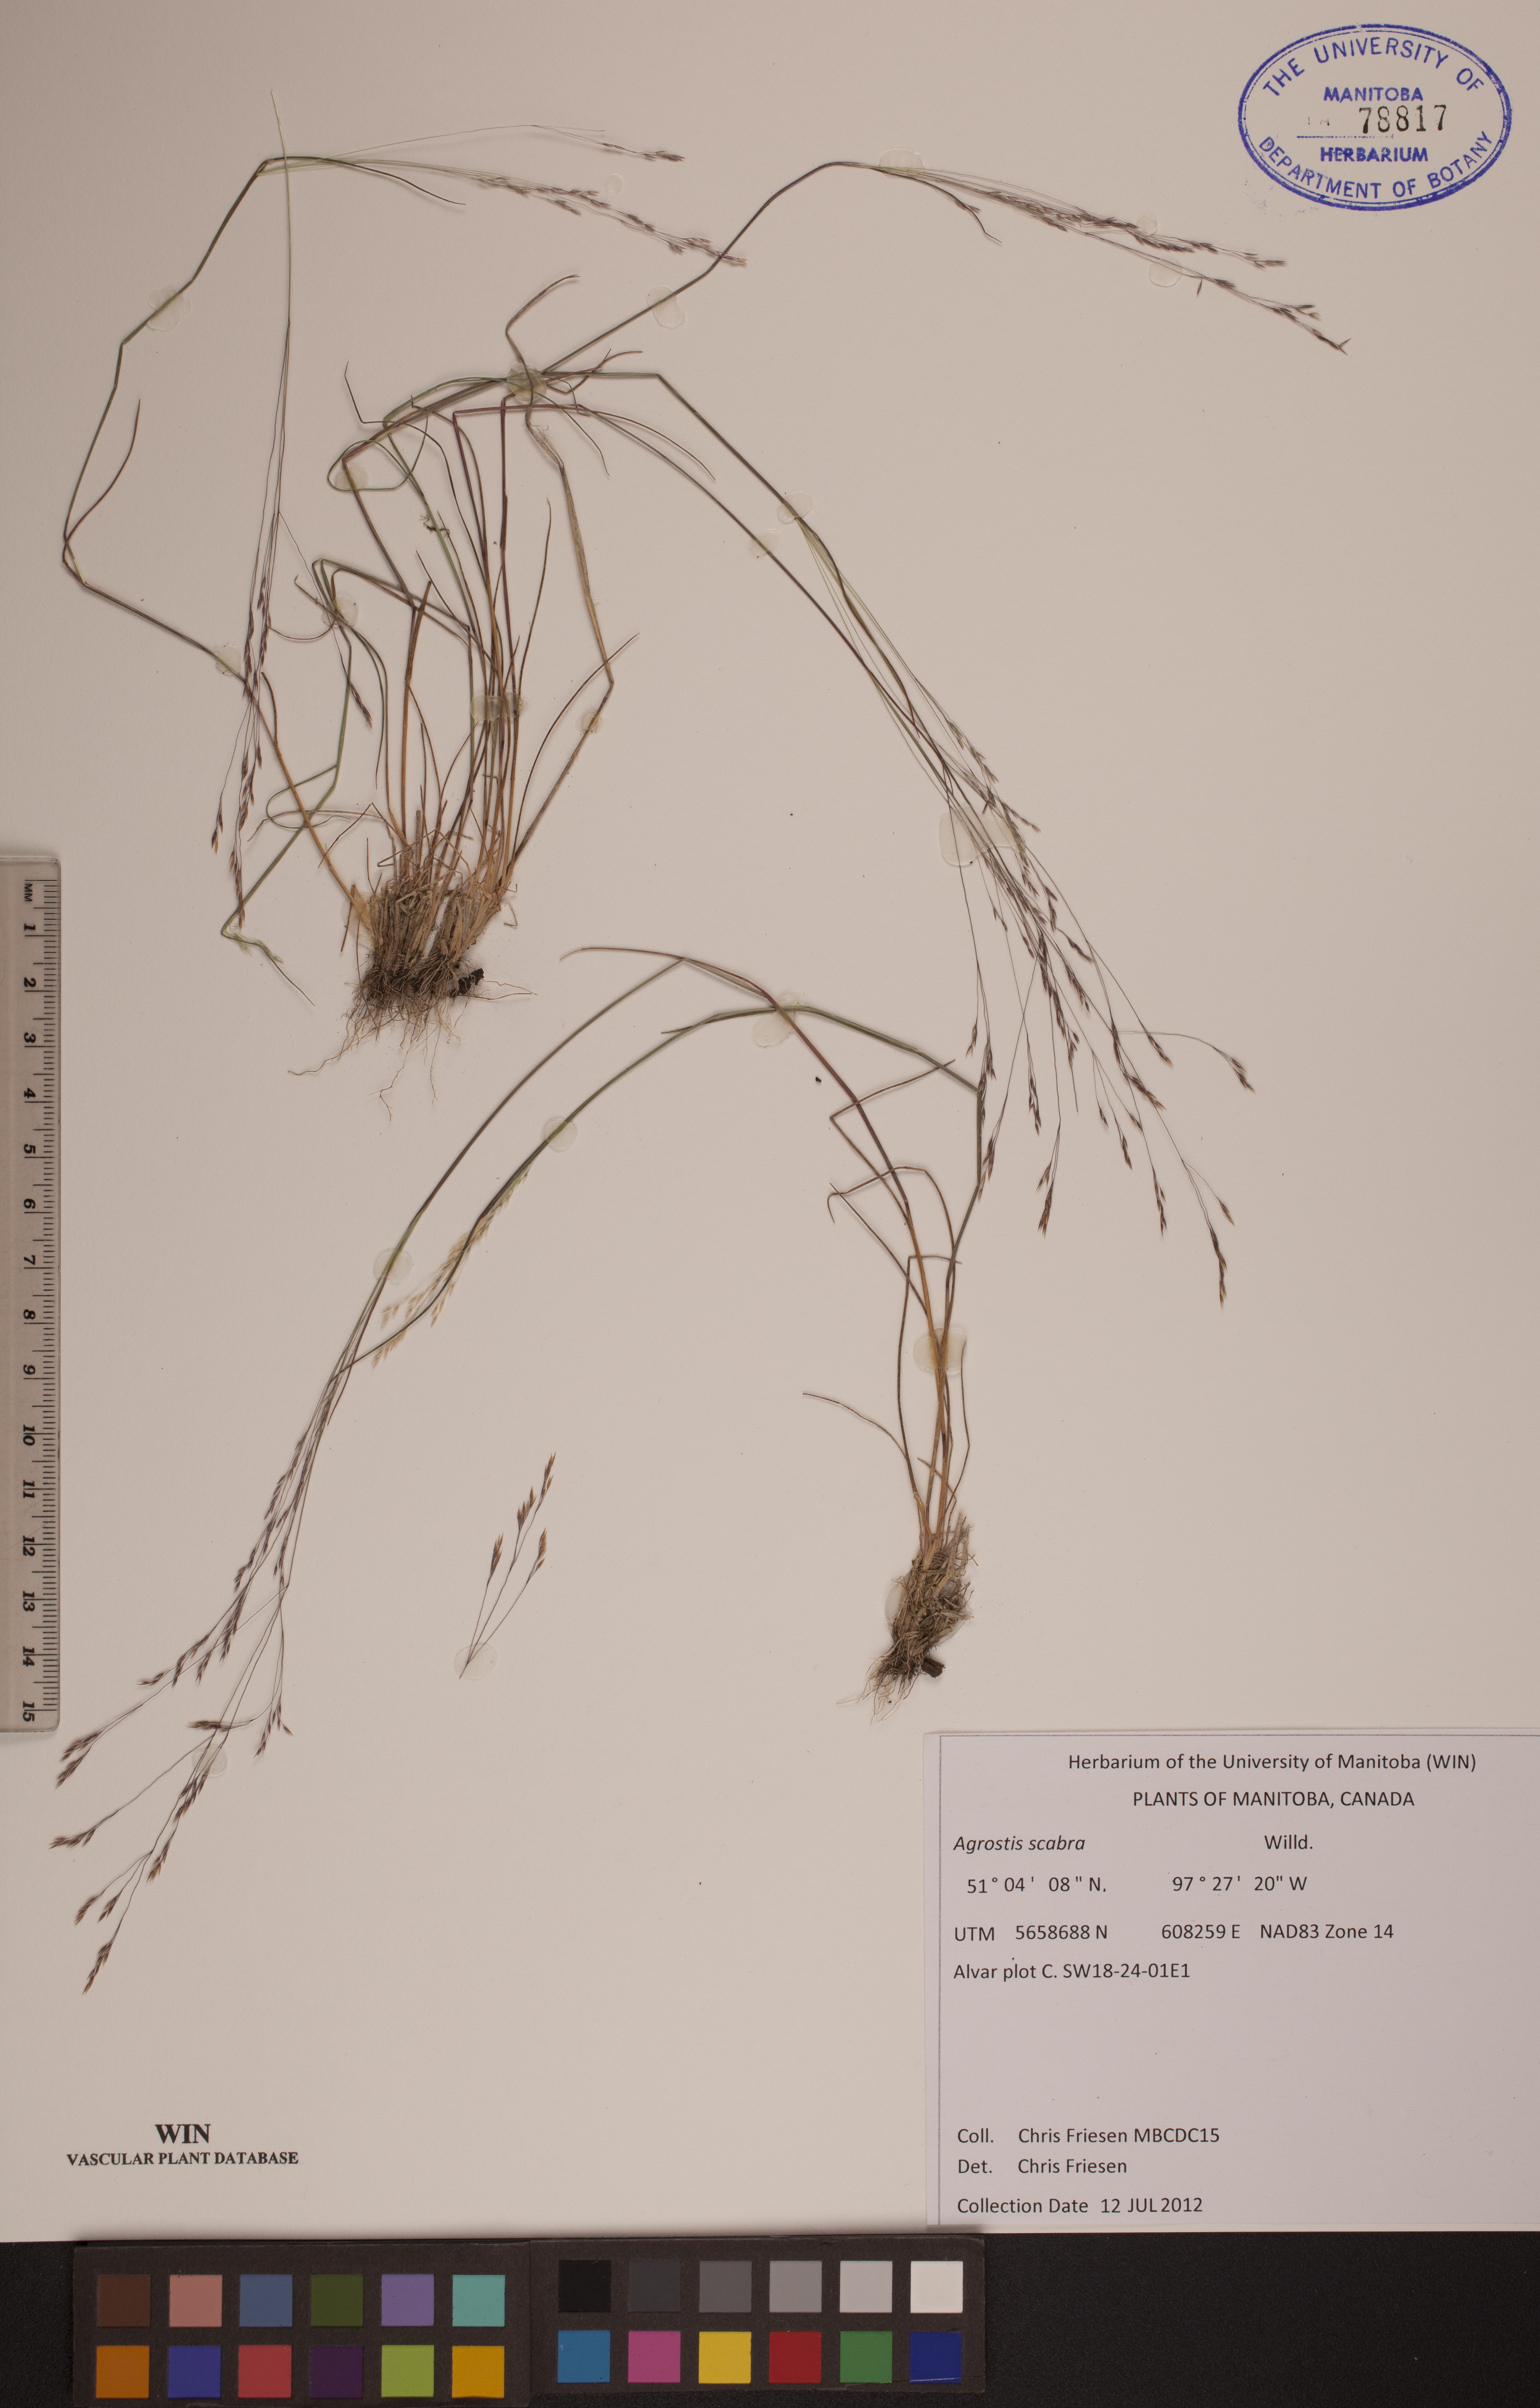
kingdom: Plantae
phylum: Tracheophyta
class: Liliopsida
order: Poales
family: Poaceae
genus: Agrostis
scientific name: Agrostis scabra
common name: Rough bent
